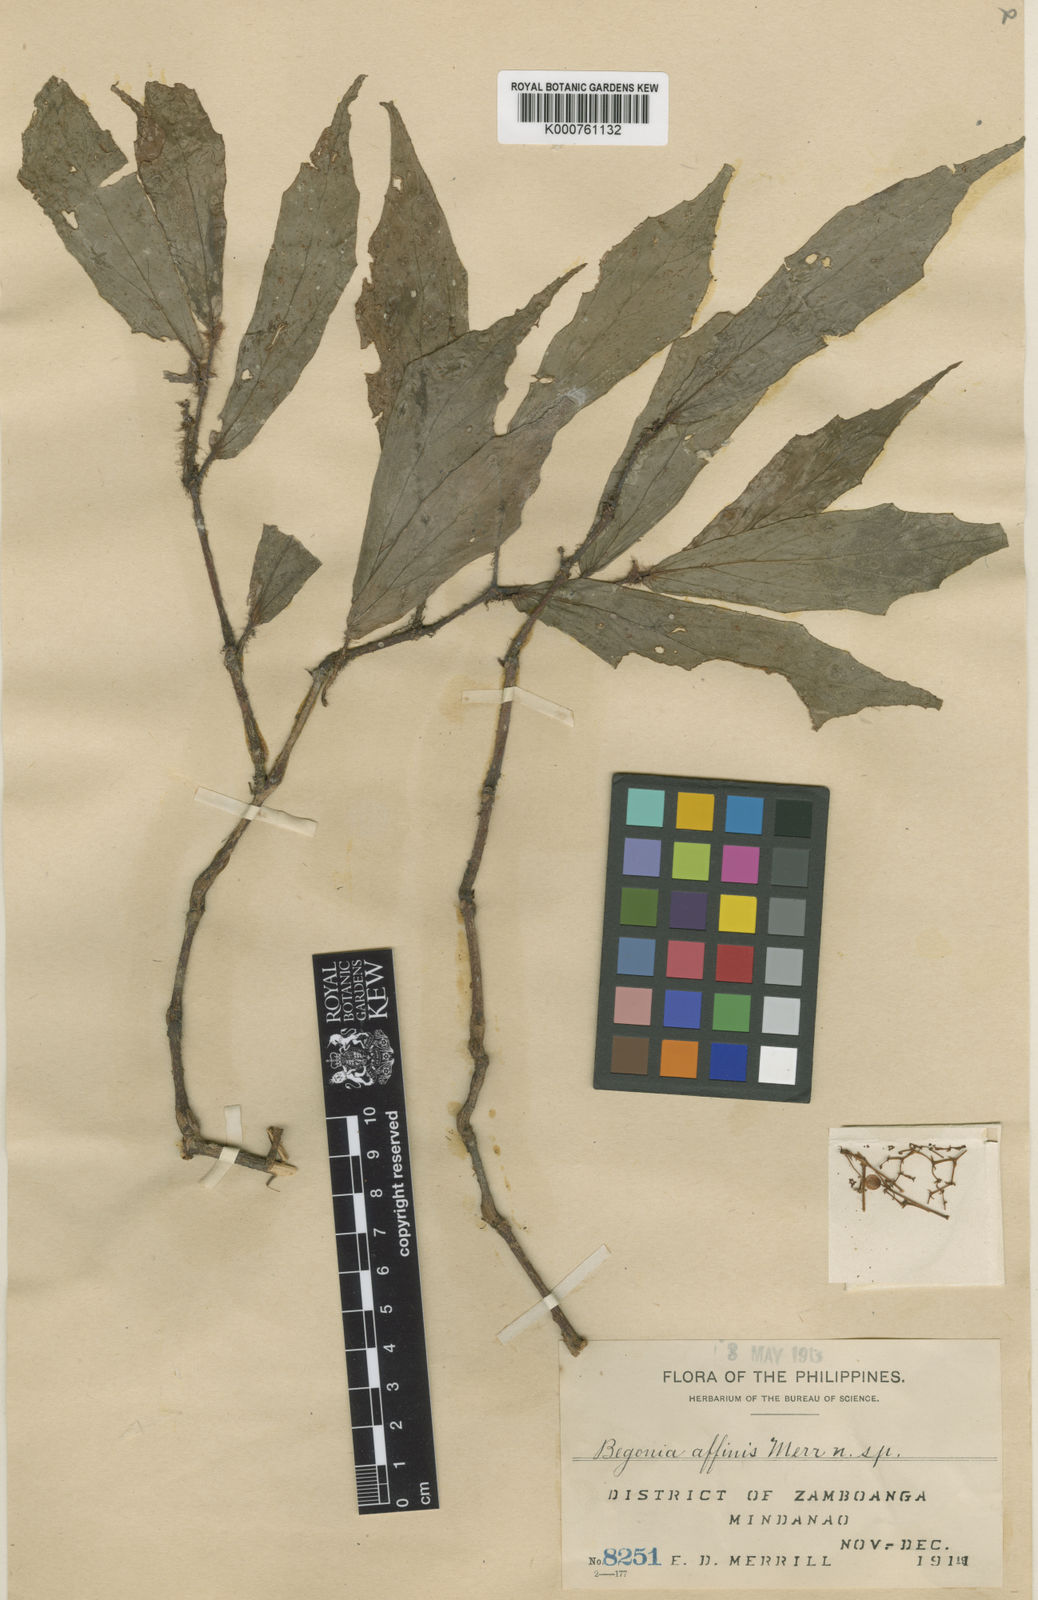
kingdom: Plantae
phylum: Tracheophyta
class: Magnoliopsida
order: Cucurbitales
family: Begoniaceae
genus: Begonia
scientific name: Begonia affinis
